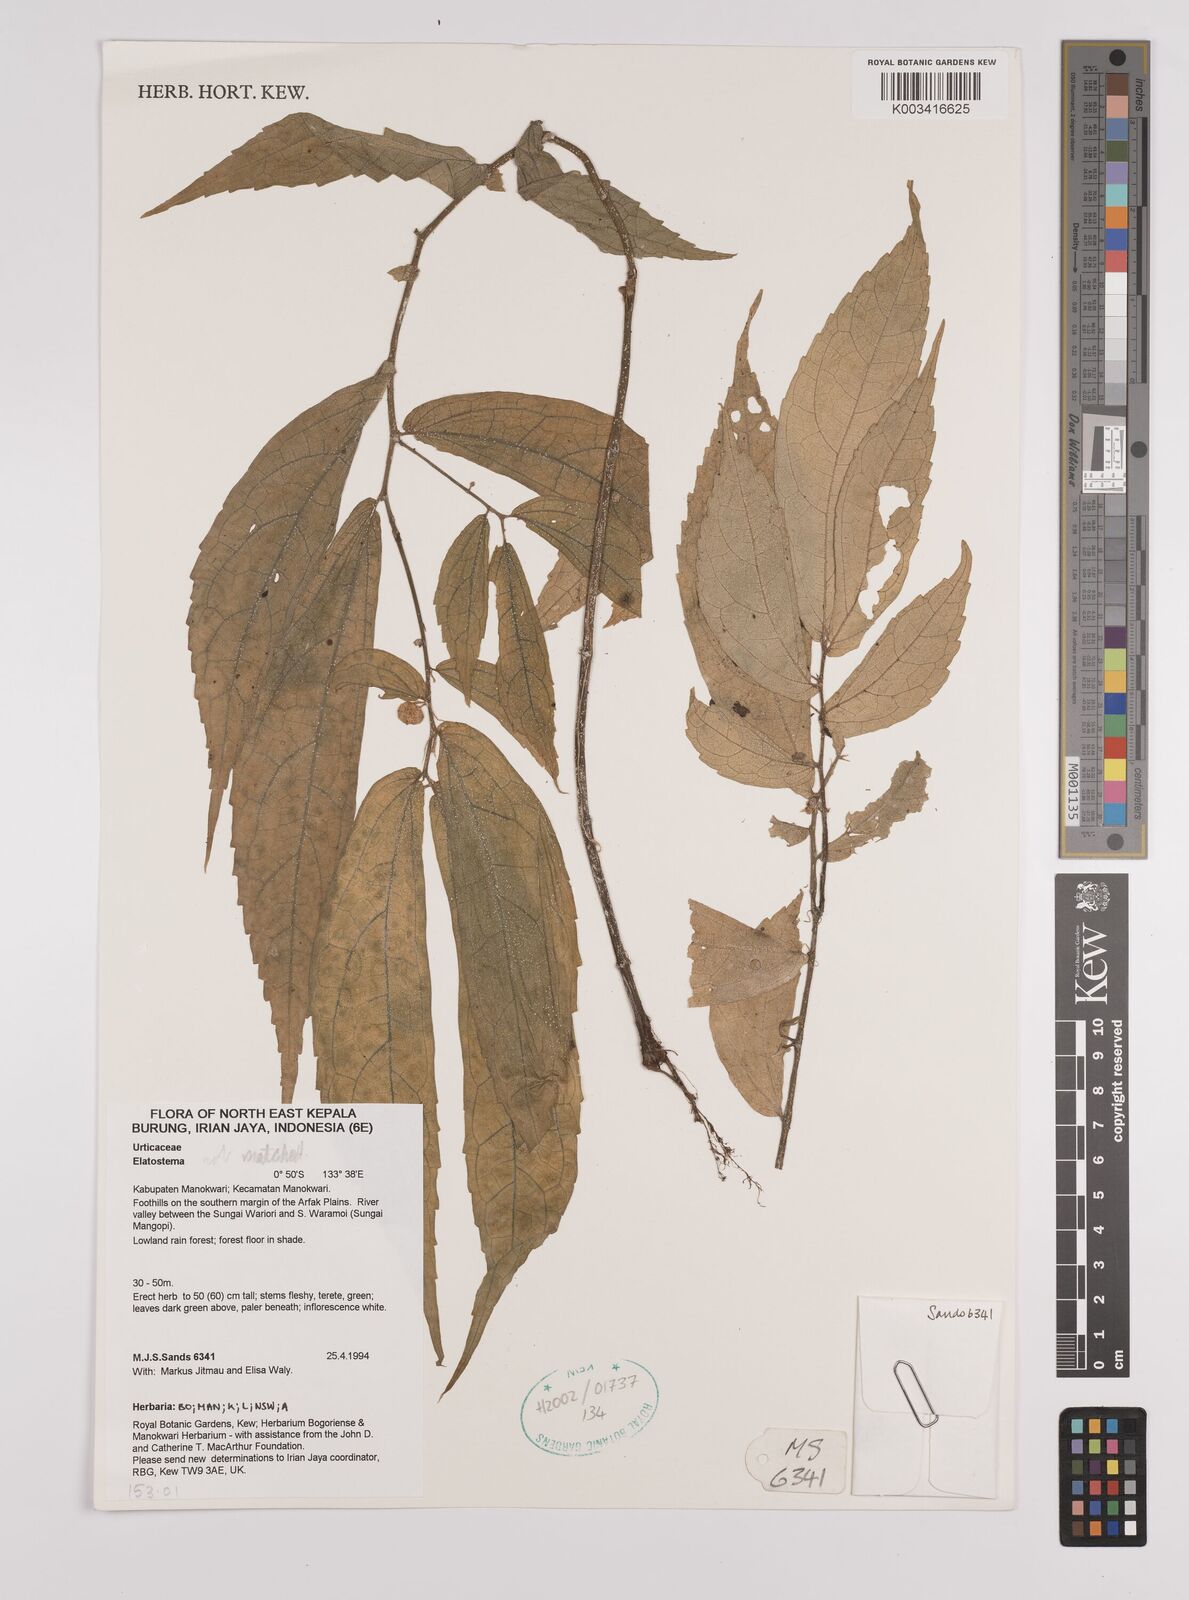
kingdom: Plantae
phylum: Tracheophyta
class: Magnoliopsida
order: Rosales
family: Urticaceae
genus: Elatostema
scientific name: Elatostema
